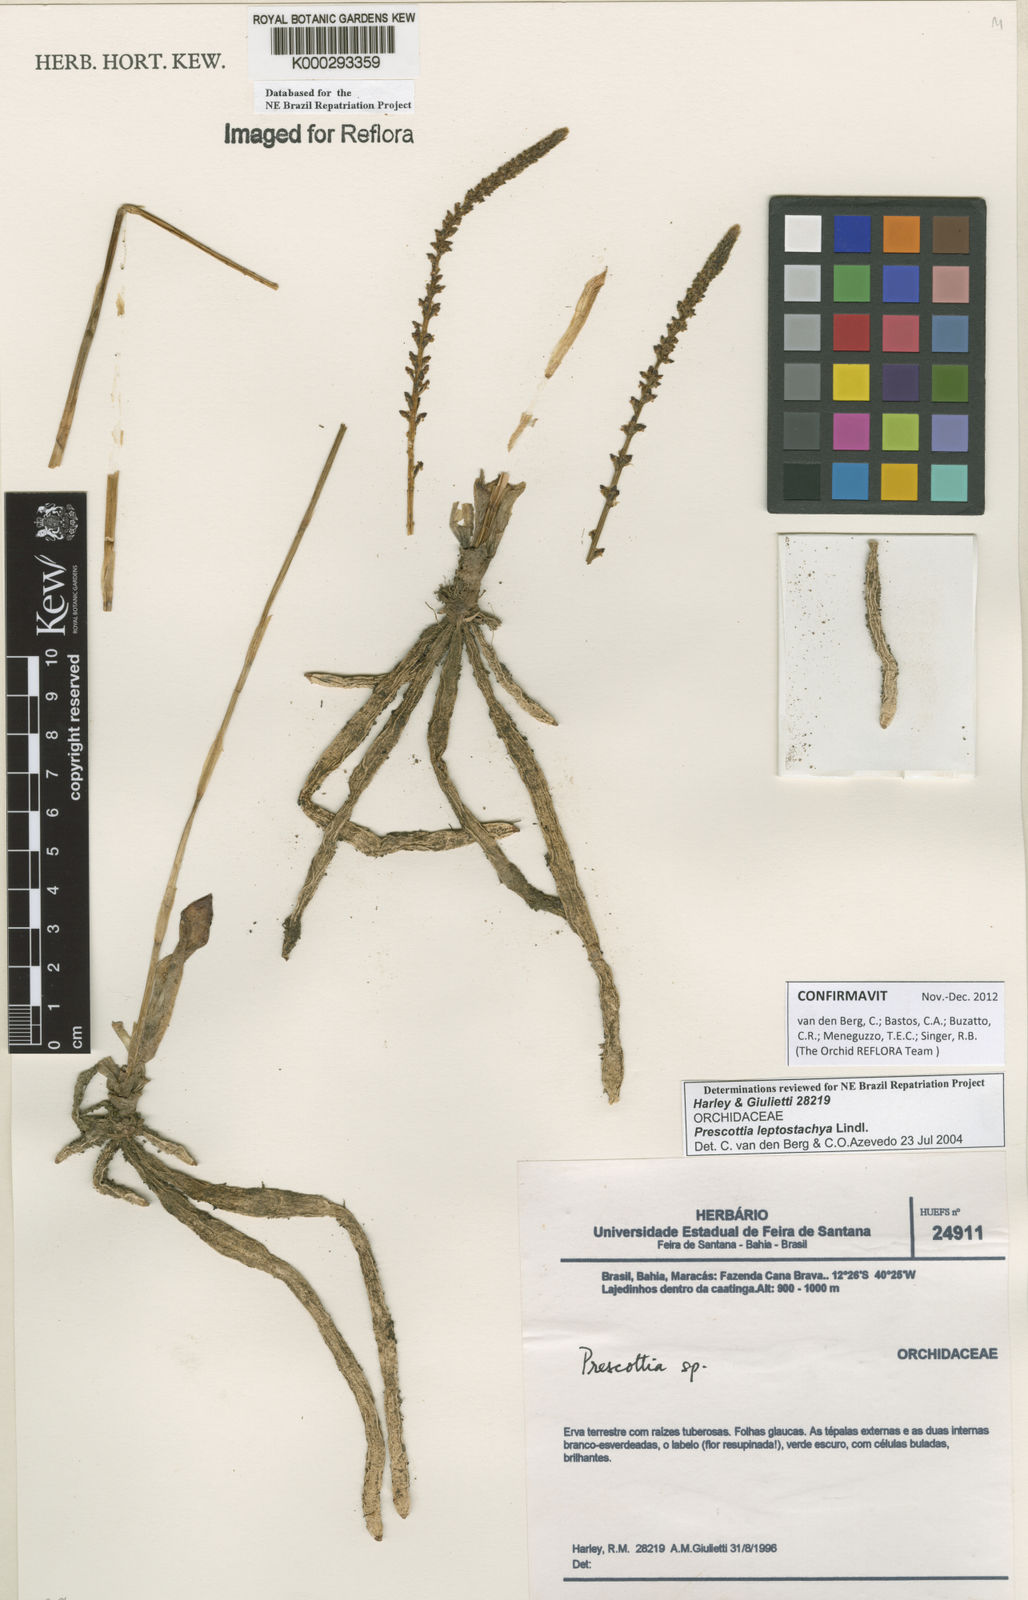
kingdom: Plantae
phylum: Tracheophyta
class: Liliopsida
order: Asparagales
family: Orchidaceae
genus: Prescottia
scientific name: Prescottia leptostachya
